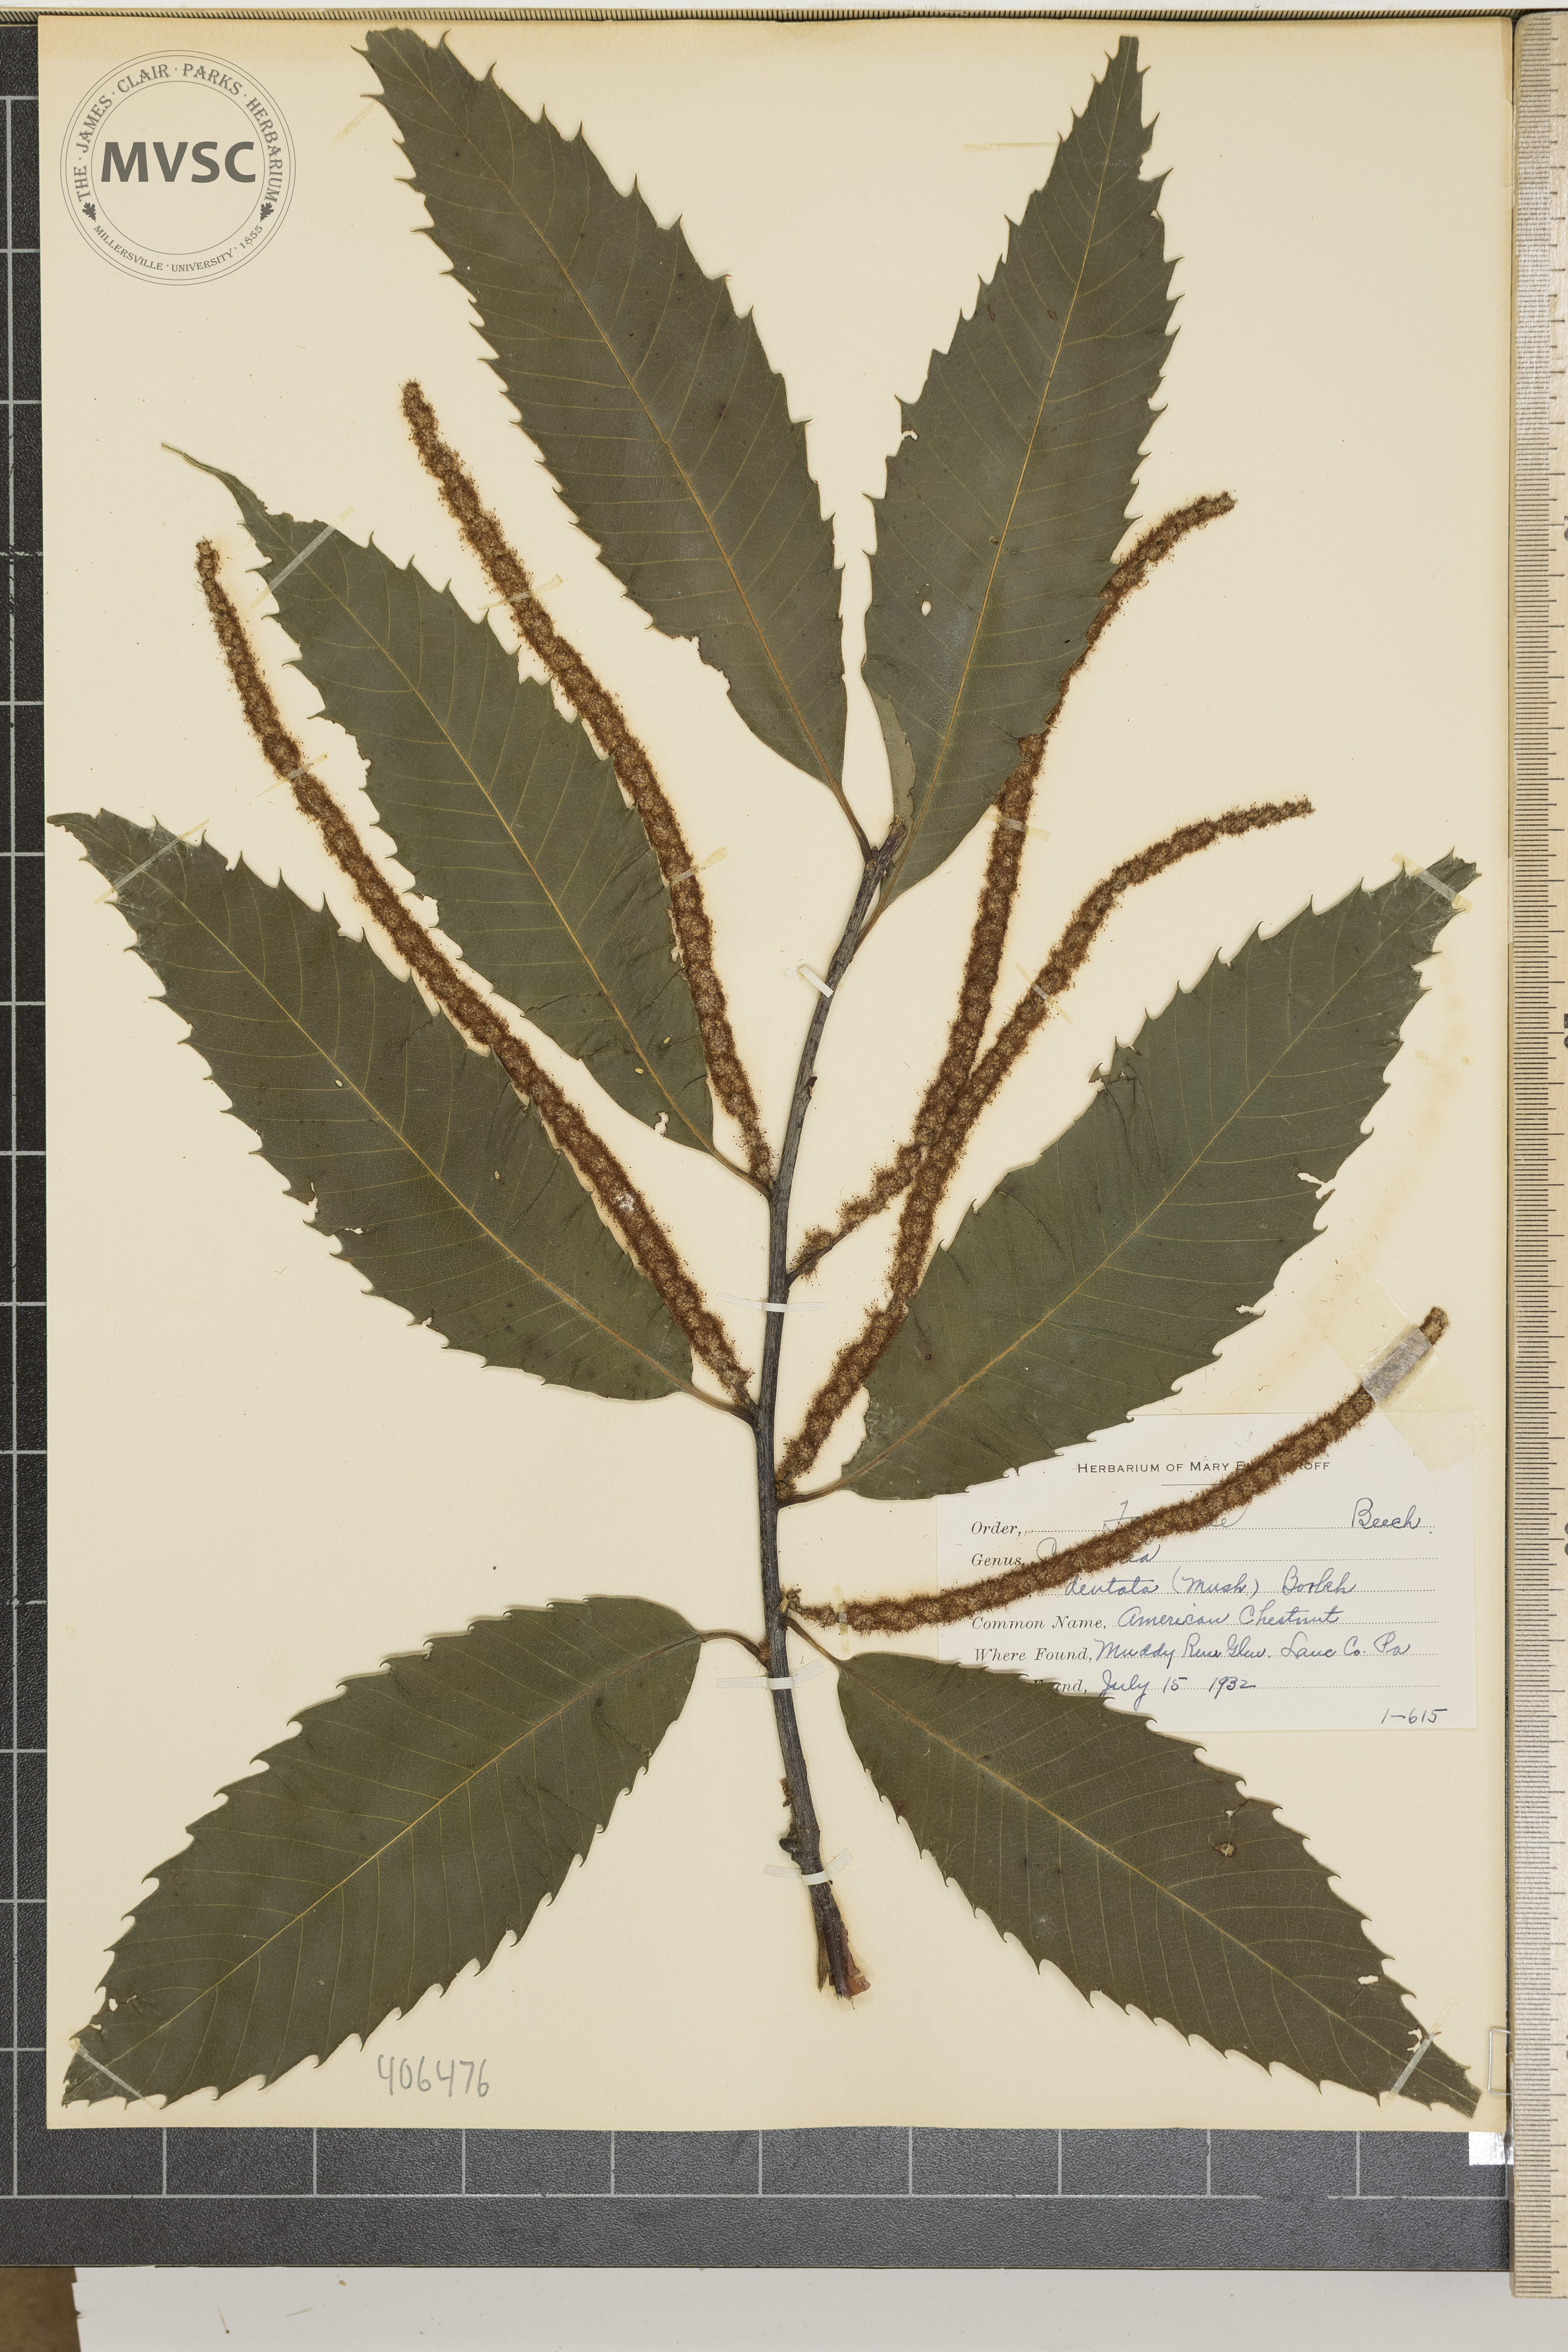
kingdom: Plantae
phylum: Tracheophyta
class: Magnoliopsida
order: Fagales
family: Fagaceae
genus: Castanea
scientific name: Castanea dentata
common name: American Chestnut
